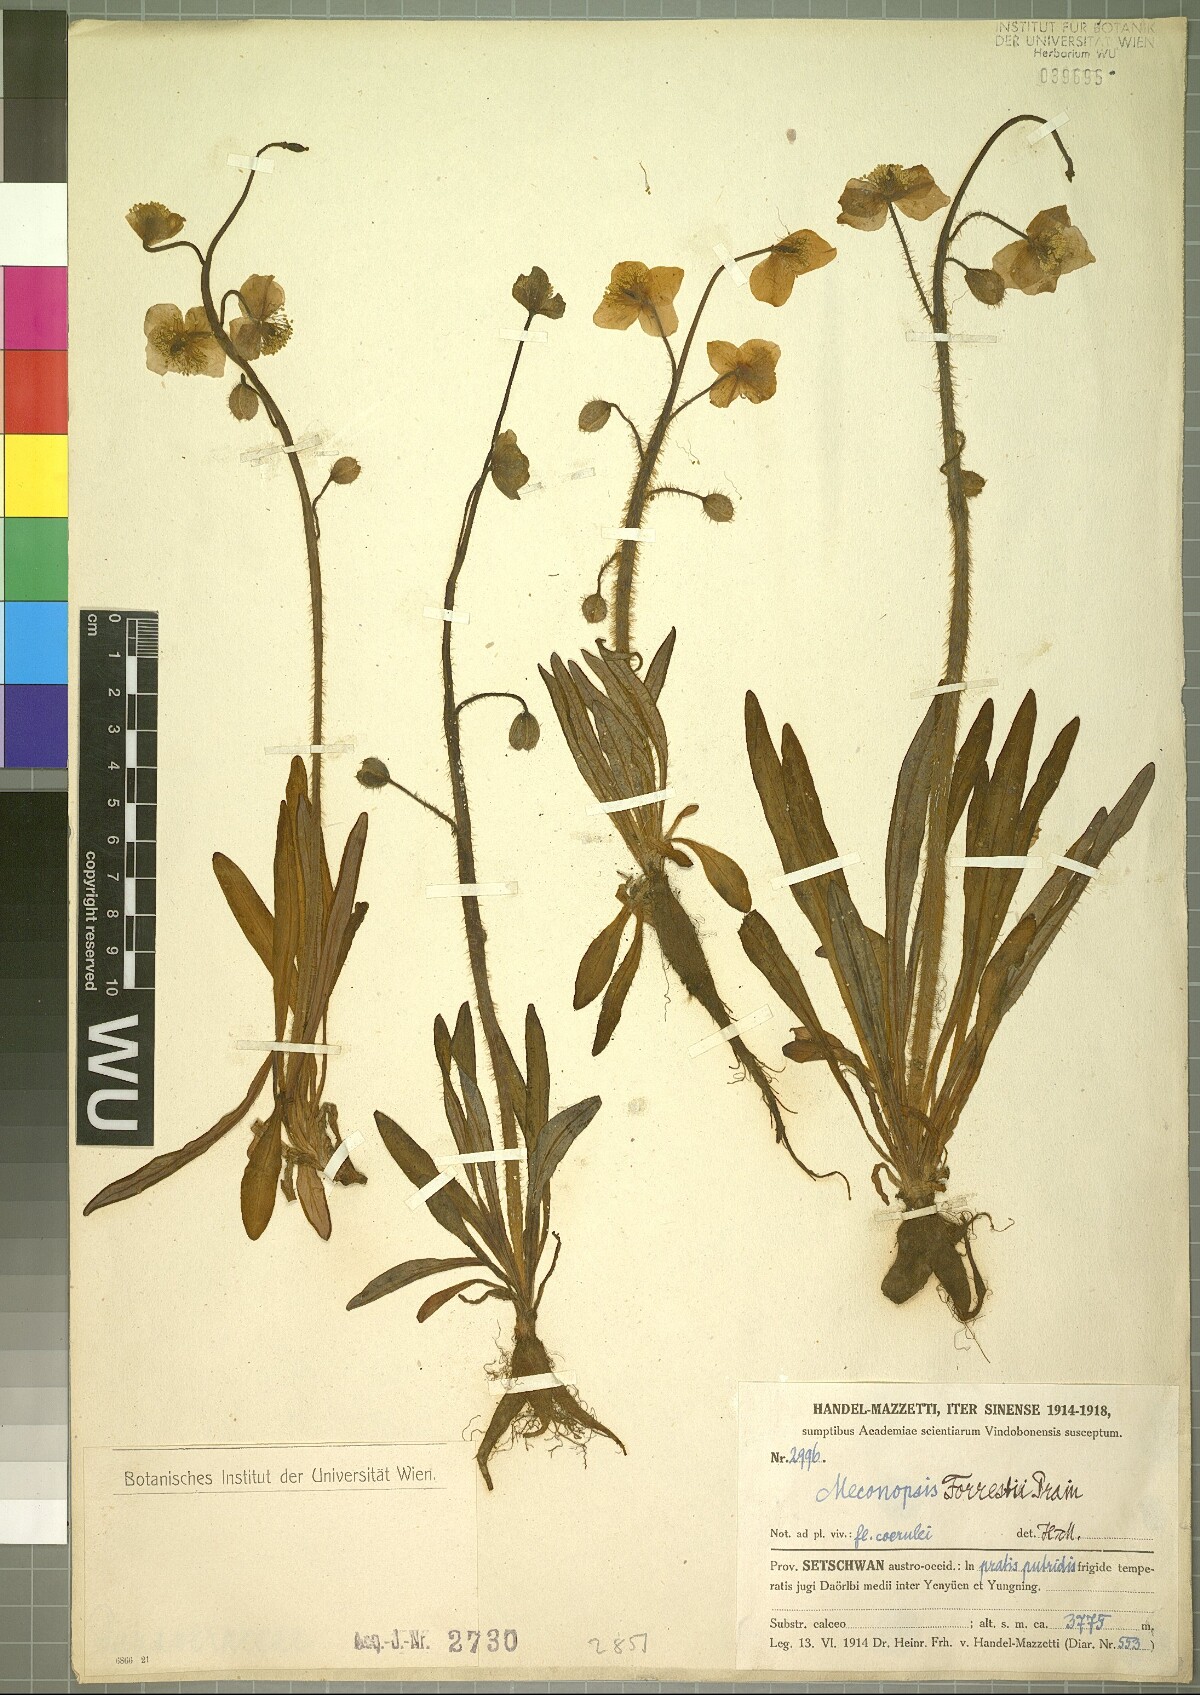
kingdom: Plantae
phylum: Tracheophyta
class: Magnoliopsida
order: Ranunculales
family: Papaveraceae
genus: Meconopsis
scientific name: Meconopsis forrestii
